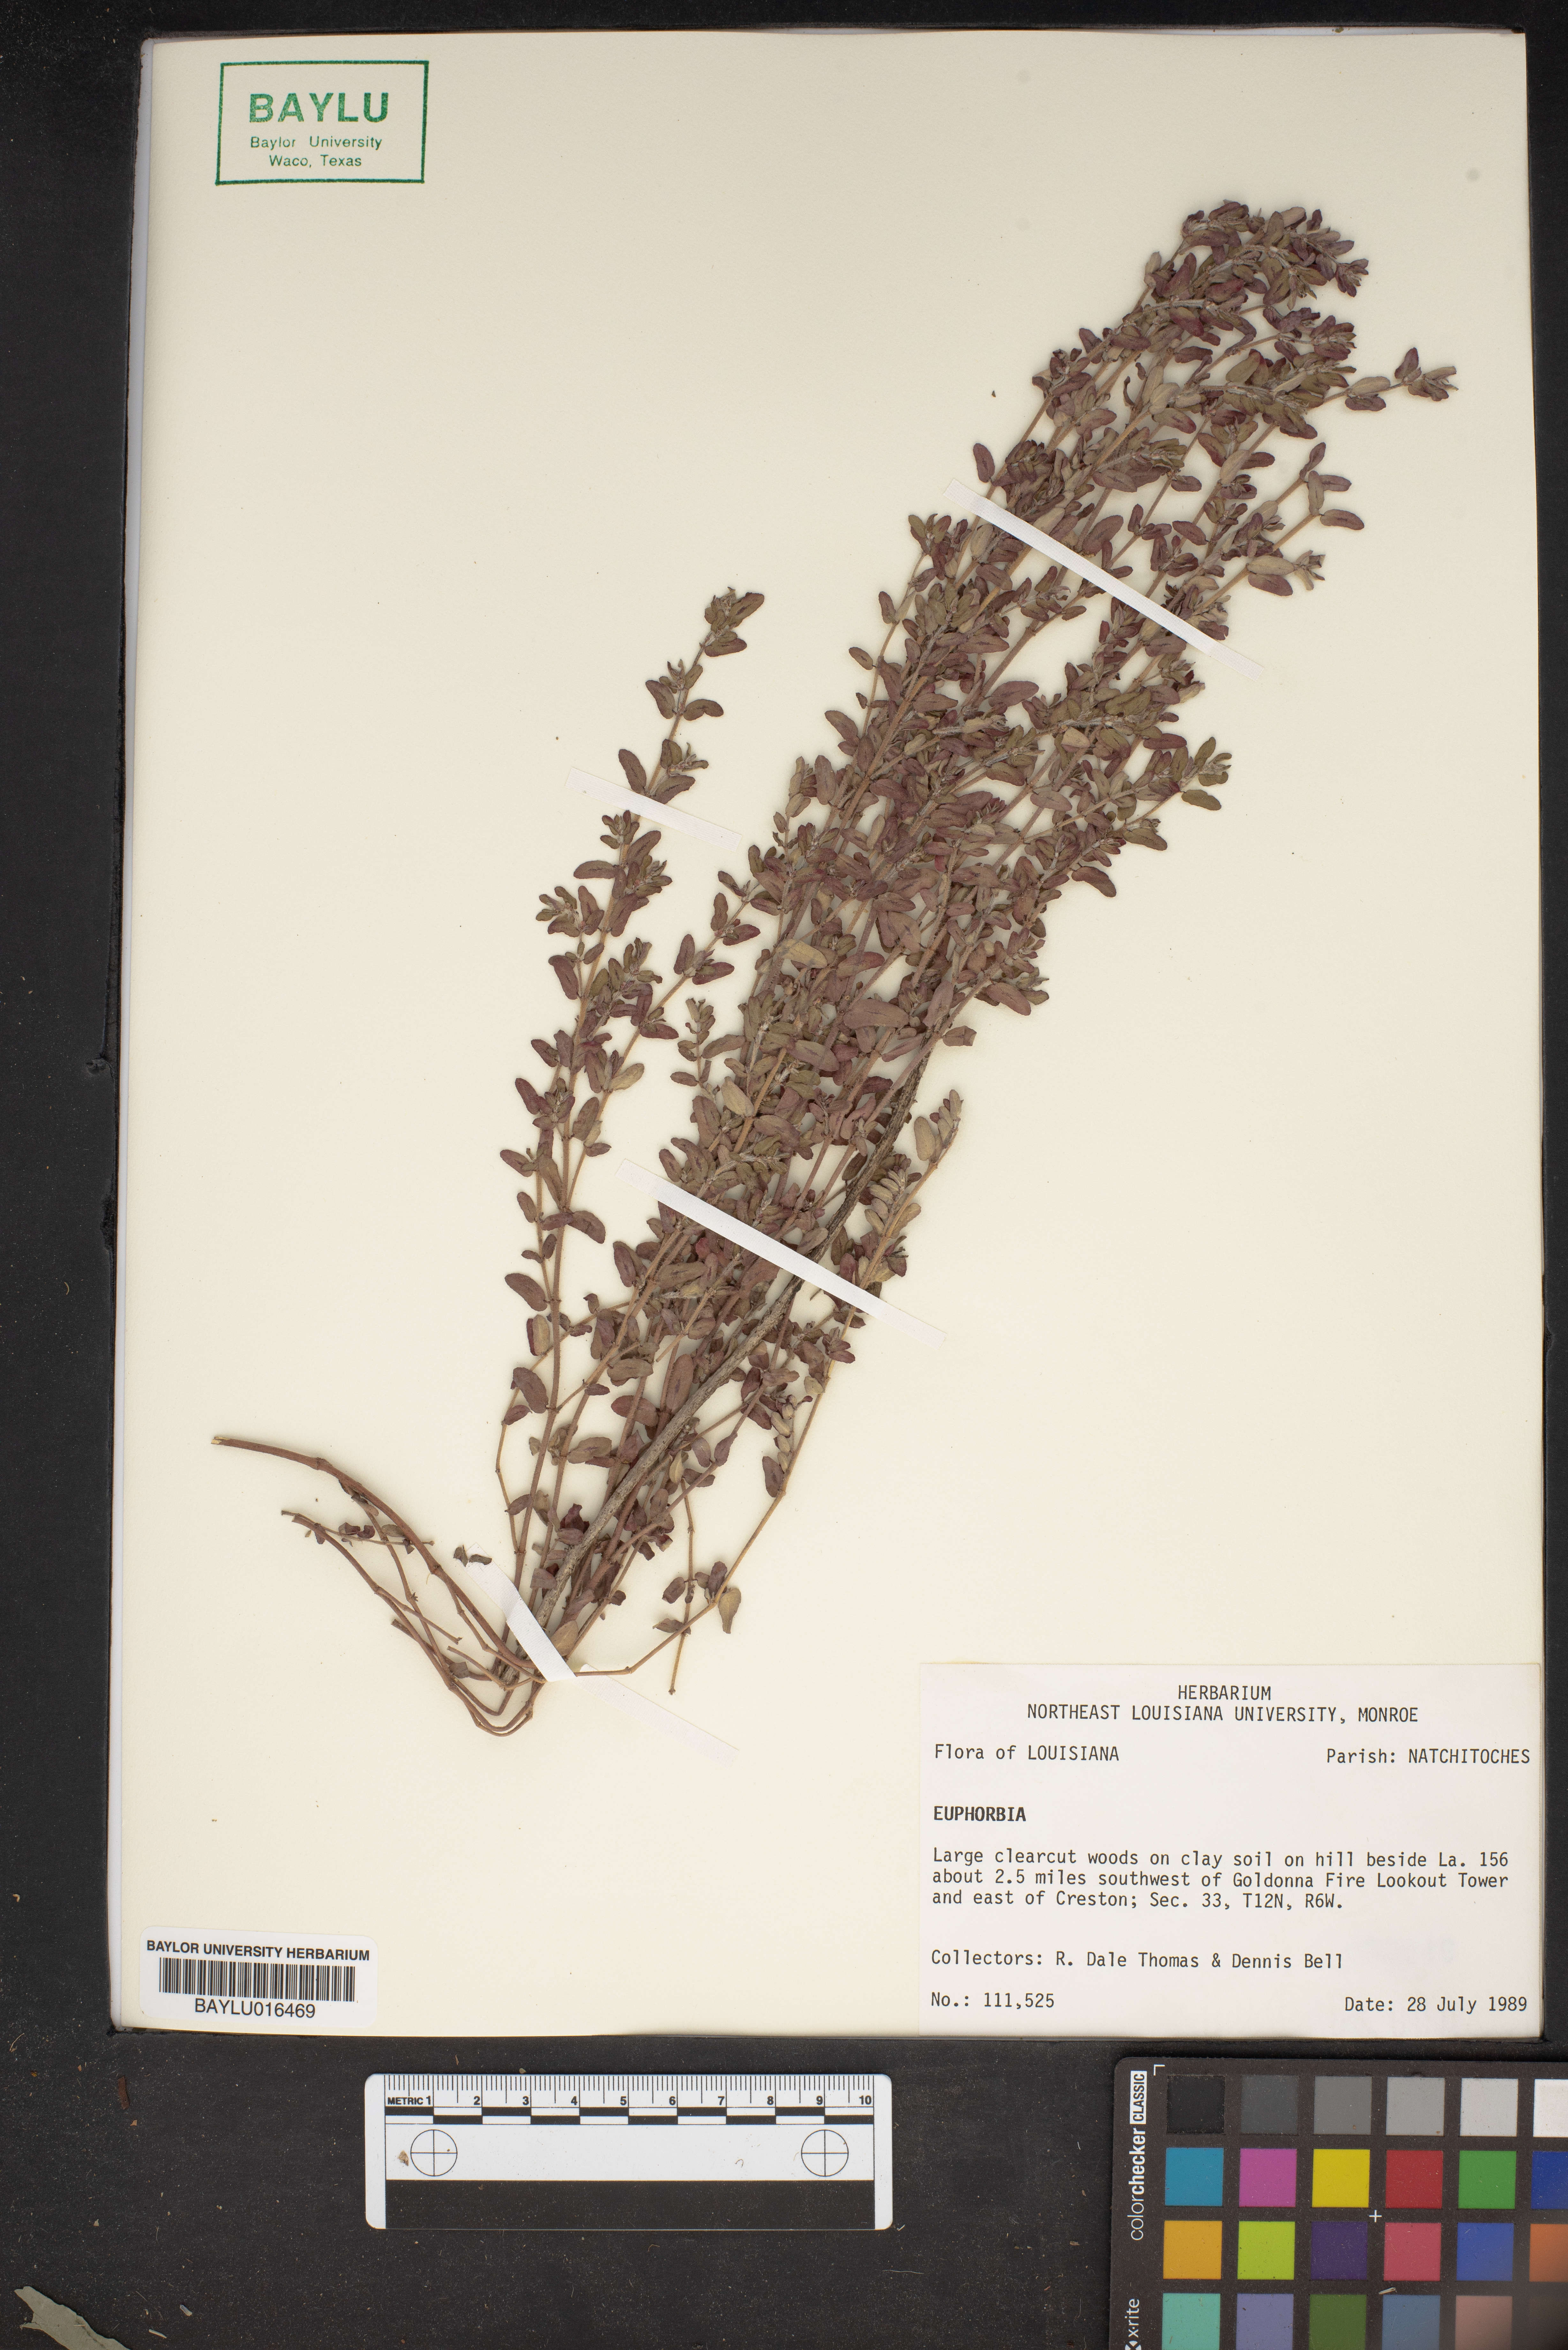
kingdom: Plantae
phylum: Tracheophyta
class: Magnoliopsida
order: Malpighiales
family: Euphorbiaceae
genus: Euphorbia
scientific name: Euphorbia
